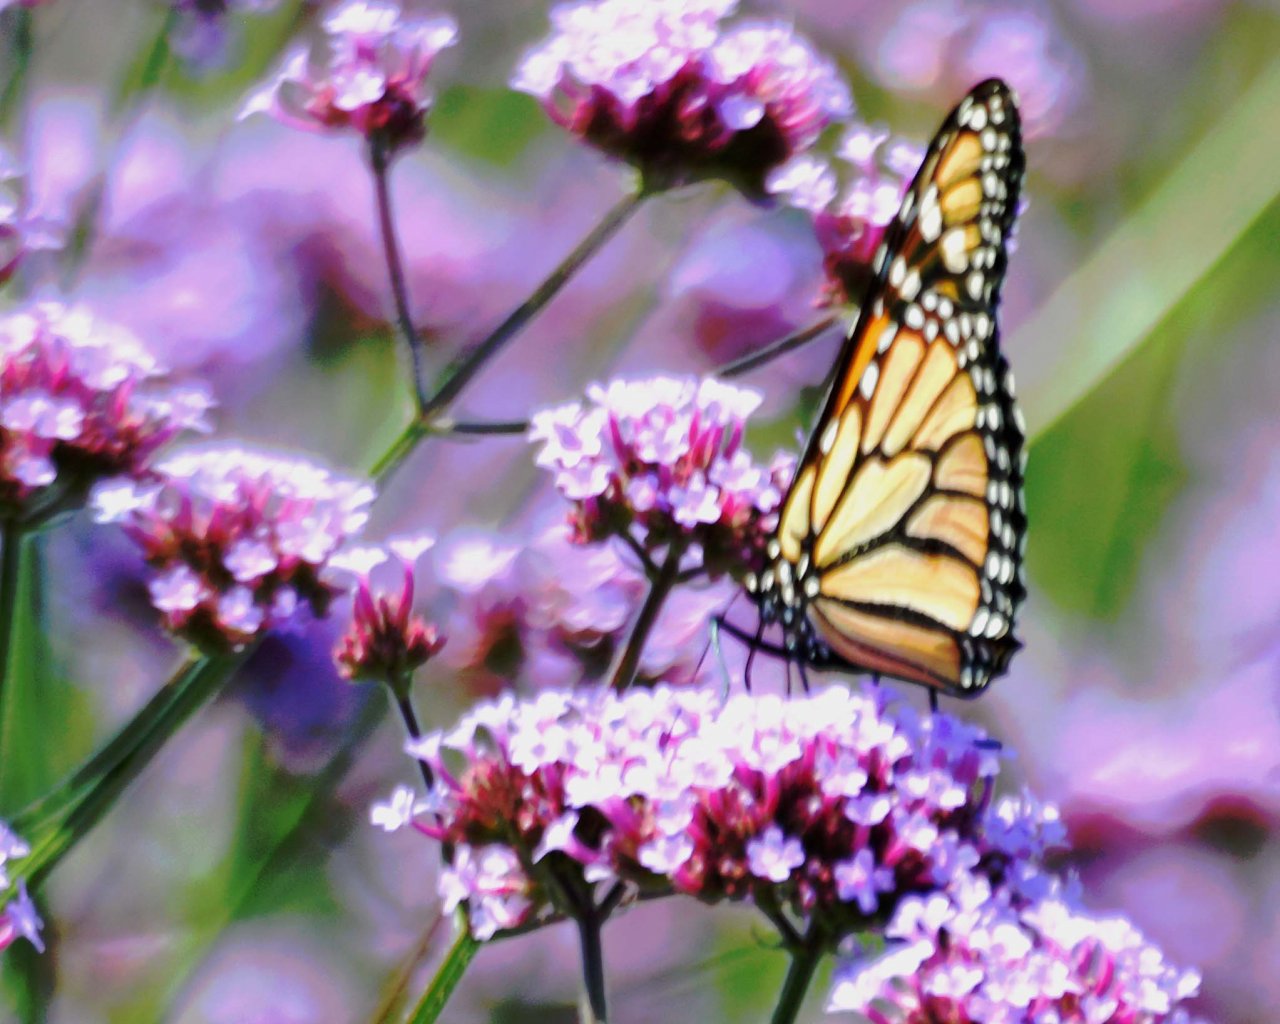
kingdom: Animalia
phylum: Arthropoda
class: Insecta
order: Lepidoptera
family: Nymphalidae
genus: Danaus
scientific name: Danaus plexippus
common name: Monarch
